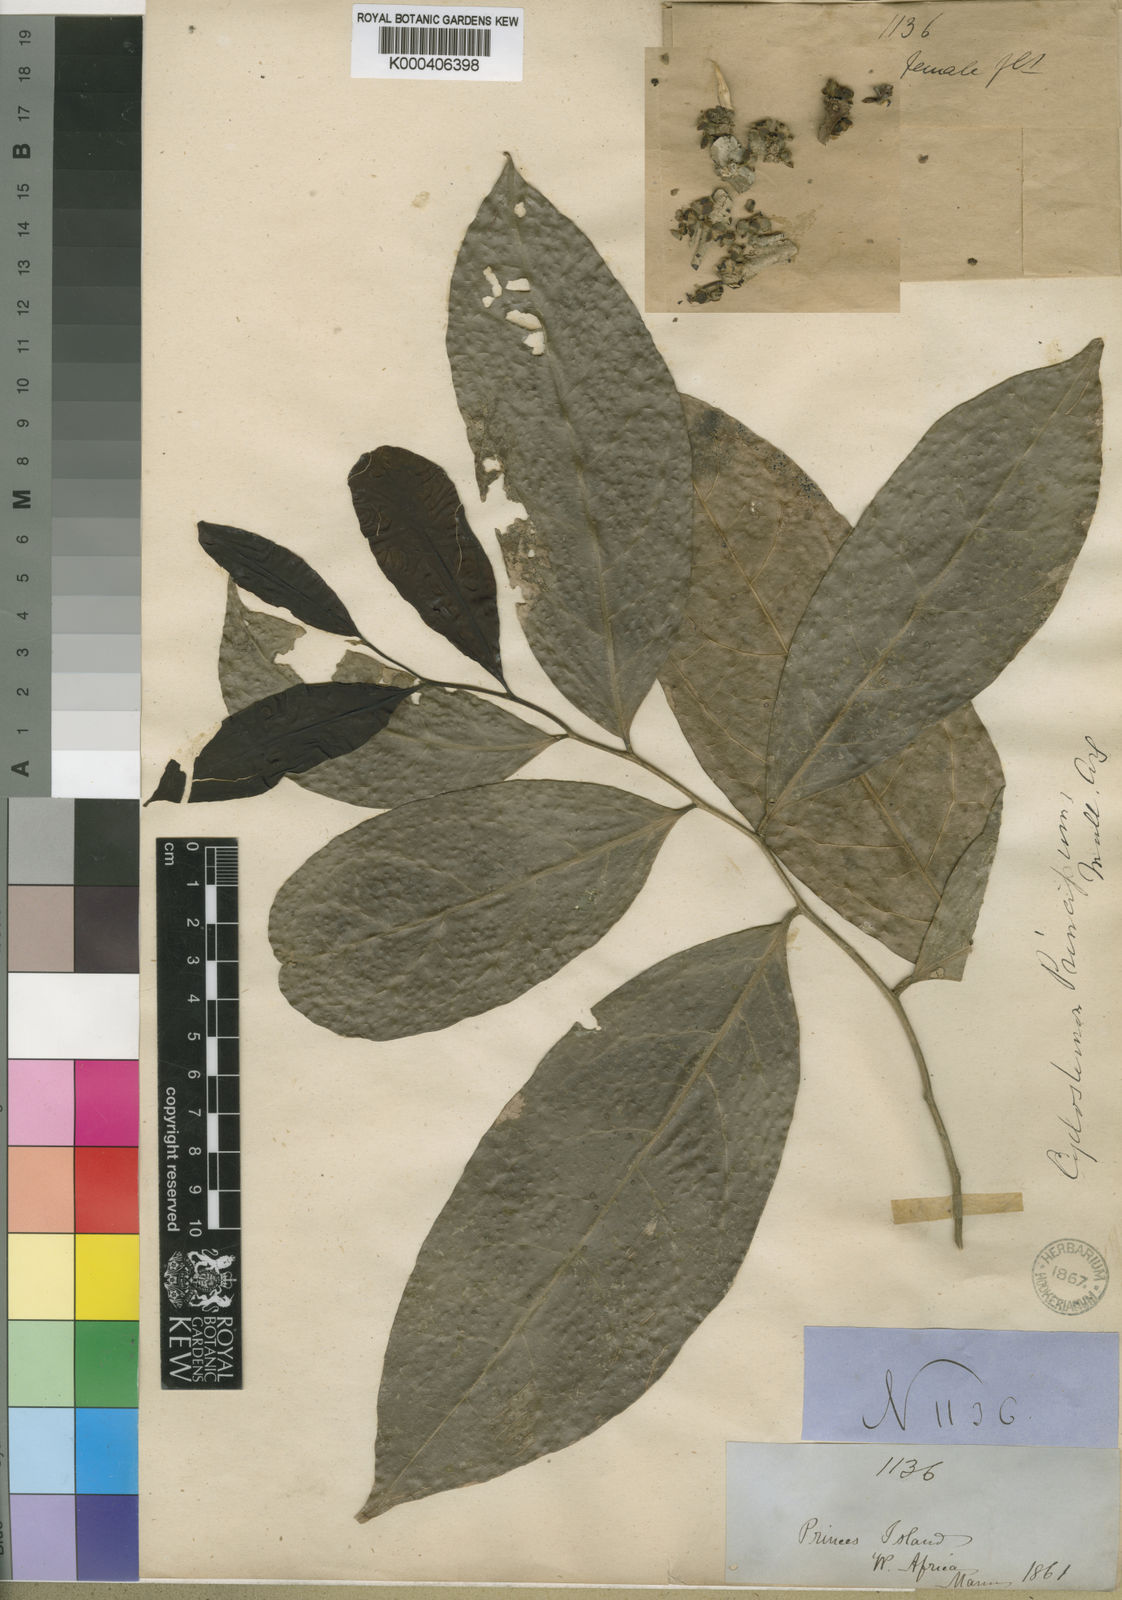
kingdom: Plantae
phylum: Tracheophyta
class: Magnoliopsida
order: Malpighiales
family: Putranjivaceae
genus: Drypetes
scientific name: Drypetes
